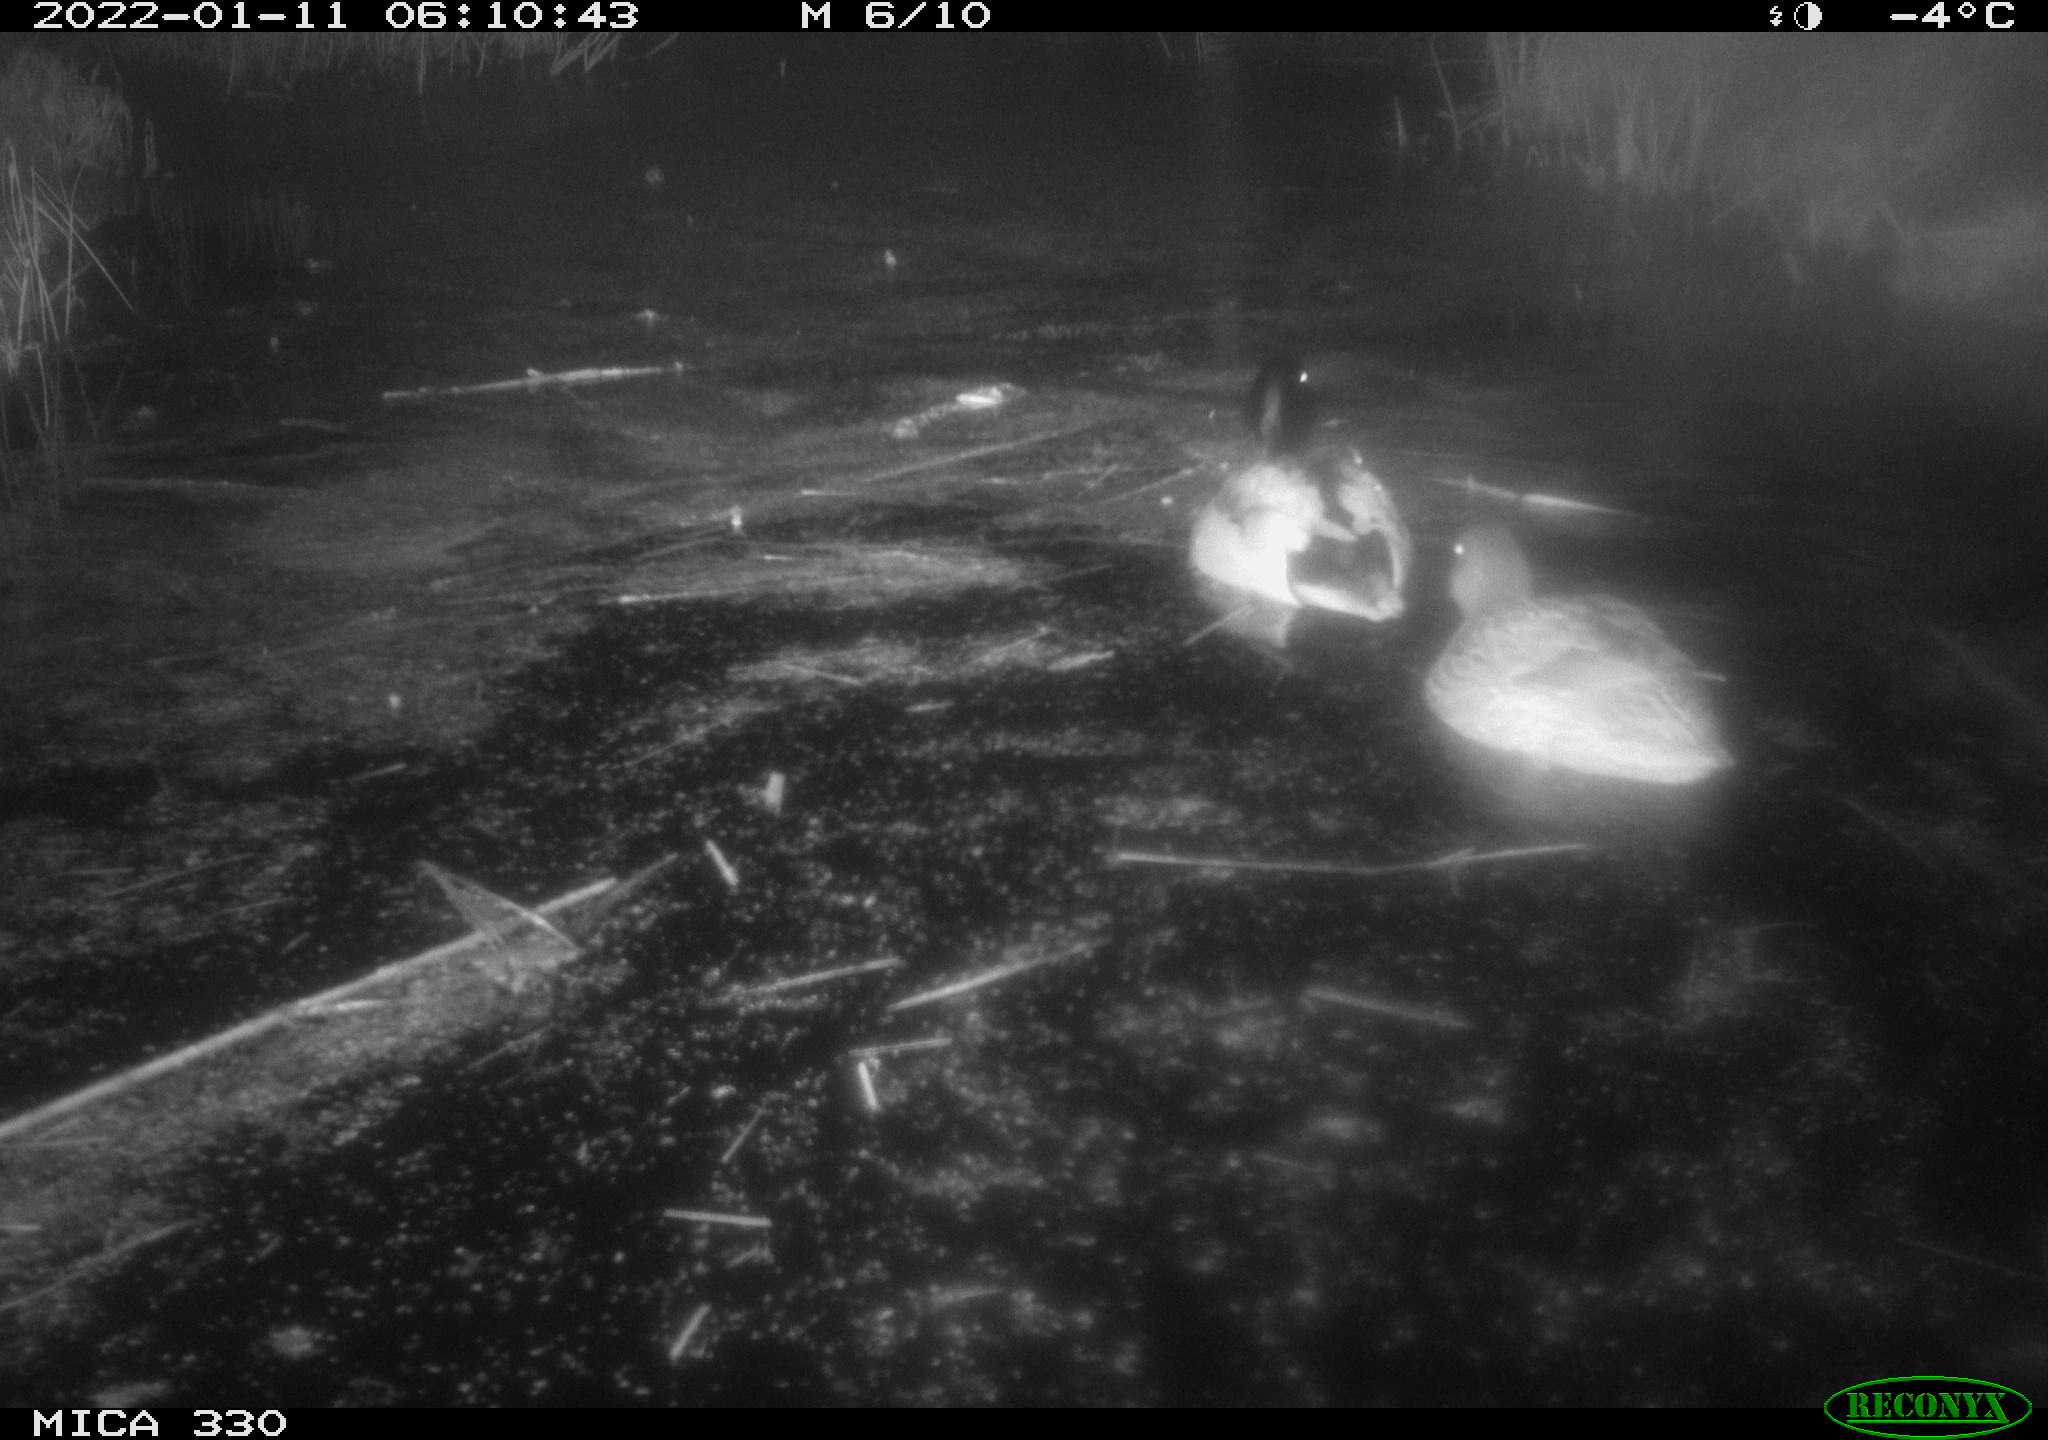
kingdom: Animalia
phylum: Chordata
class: Aves
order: Anseriformes
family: Anatidae
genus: Anas
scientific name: Anas platyrhynchos
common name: Mallard
